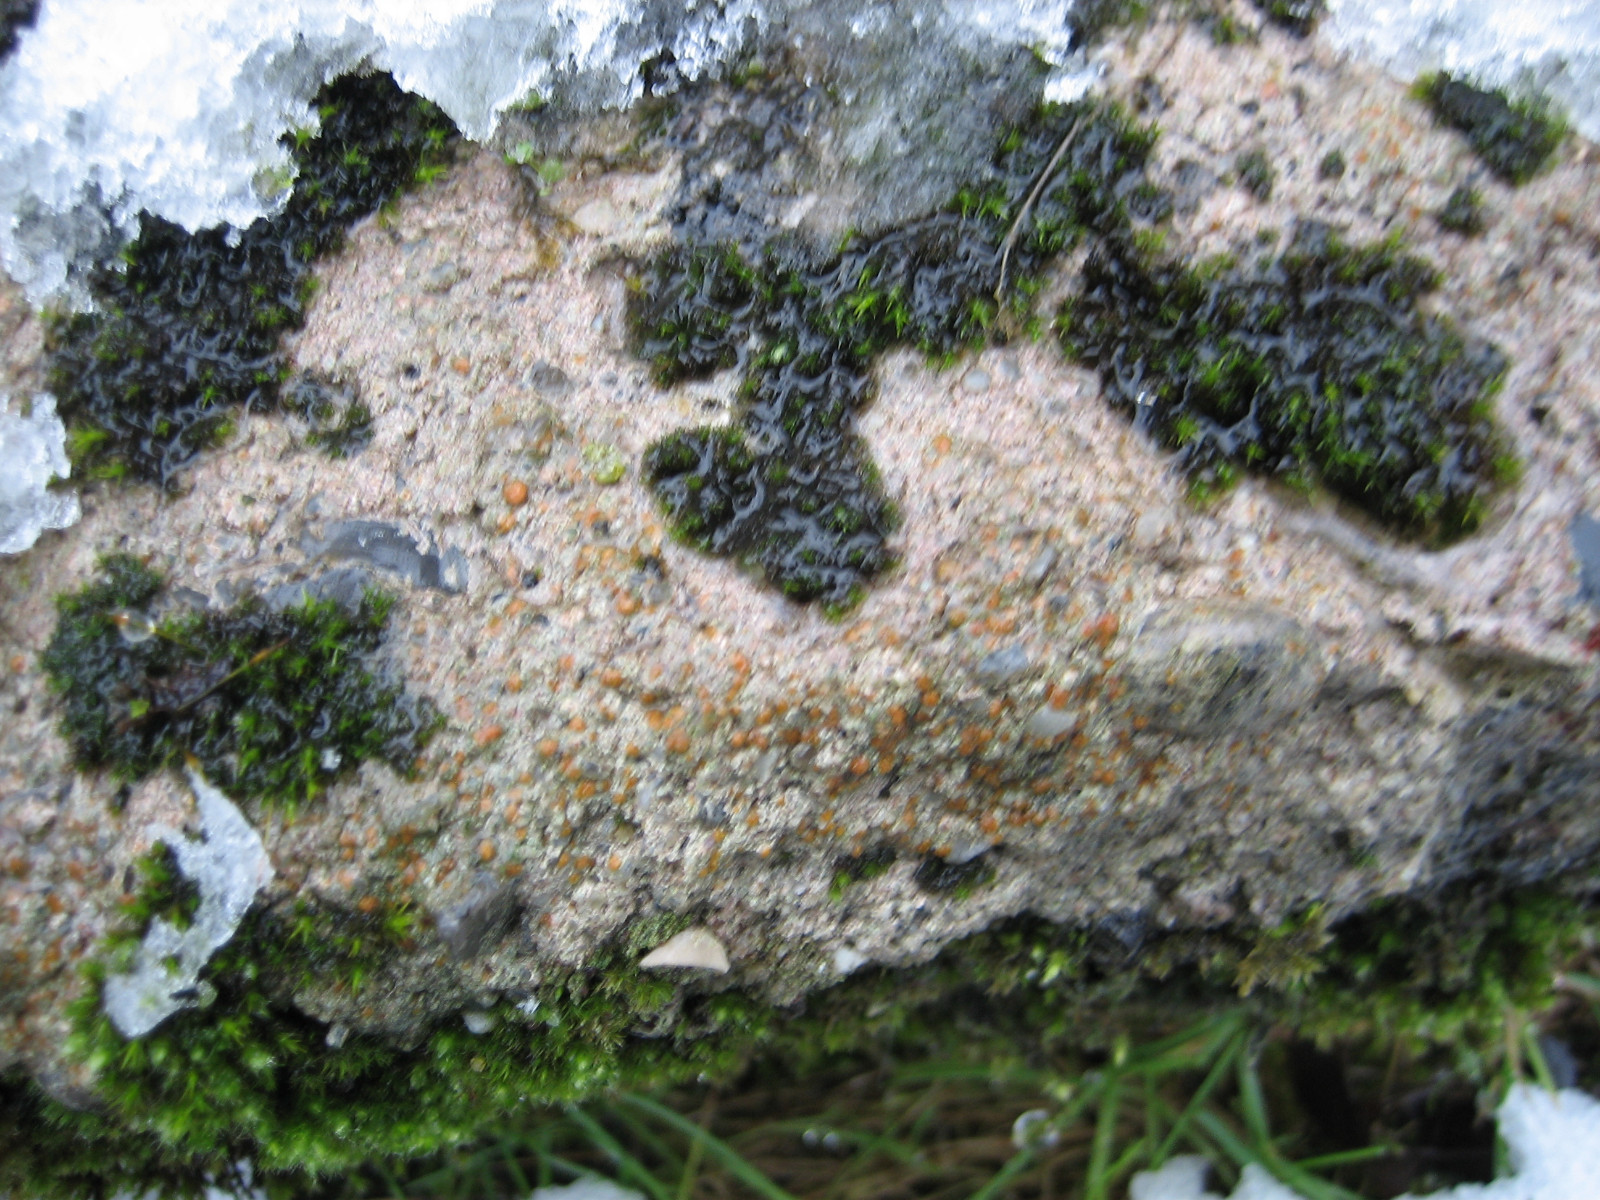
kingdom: Fungi
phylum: Ascomycota
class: Lecanoromycetes
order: Lecanorales
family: Psoraceae
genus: Protoblastenia
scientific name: Protoblastenia rupestris
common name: kalk-gulskivelav
